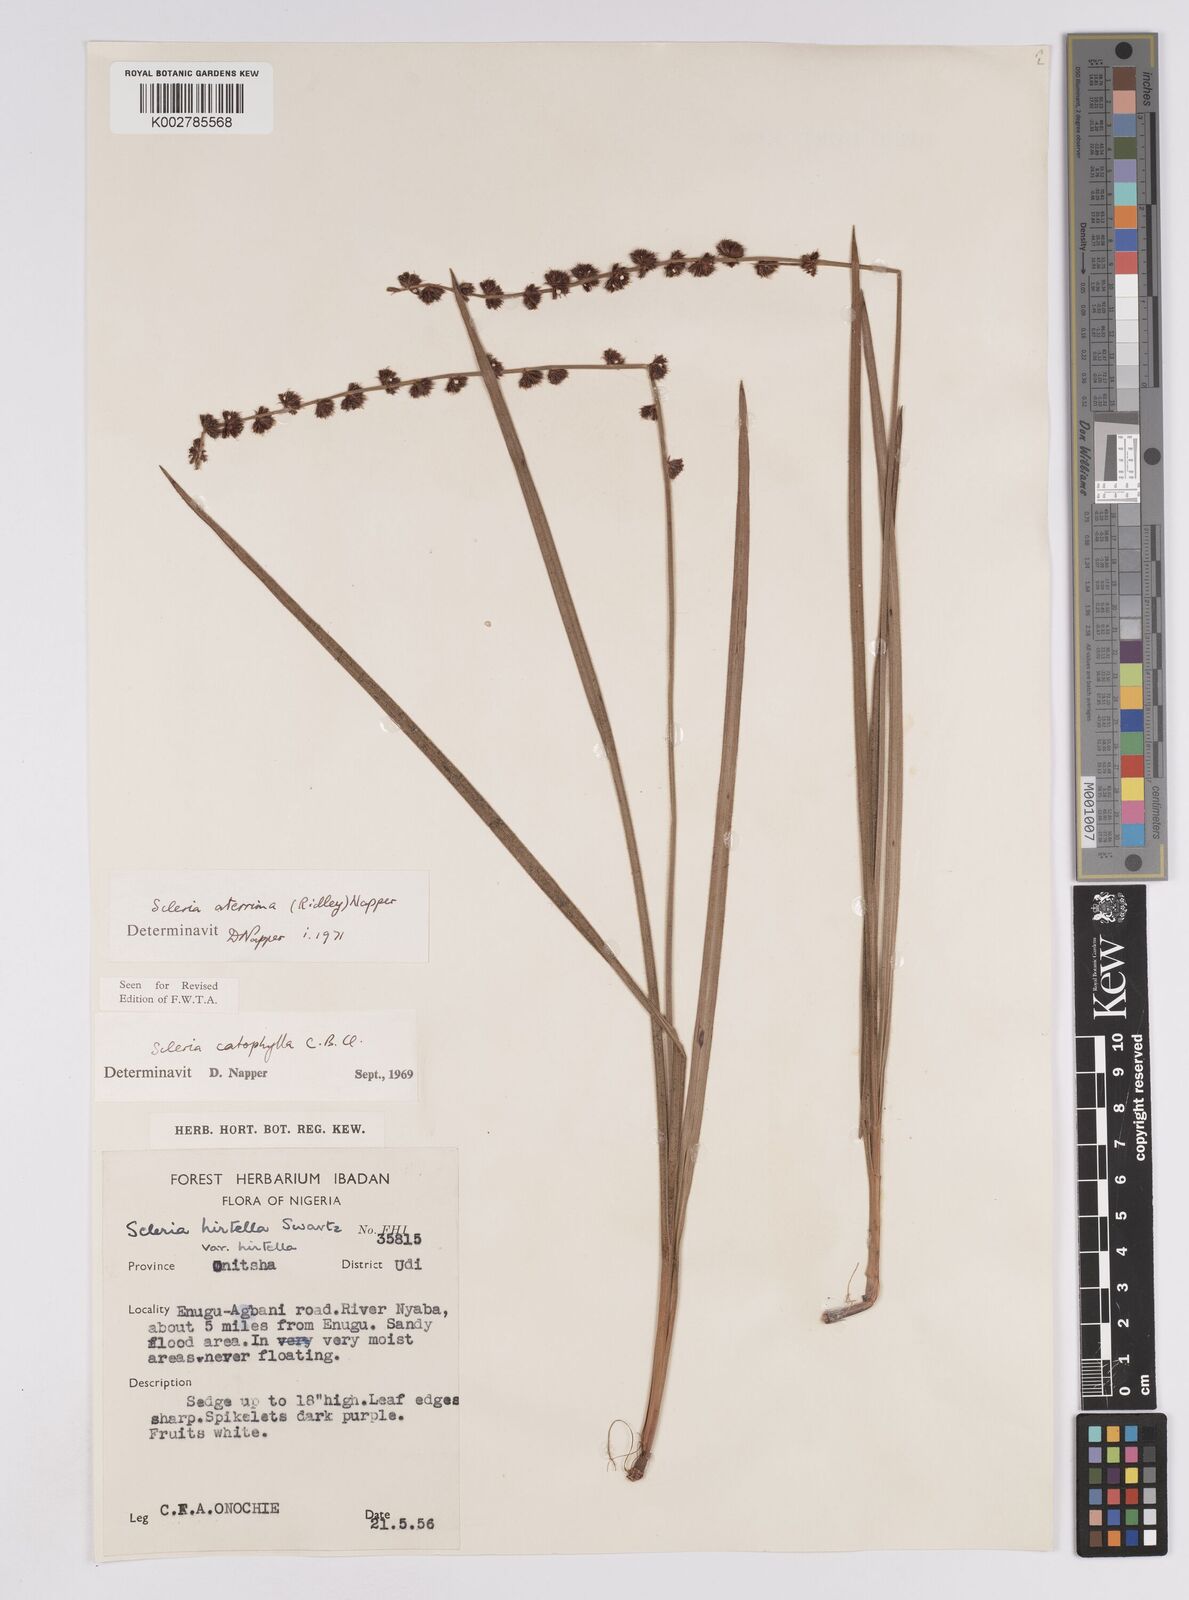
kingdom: Plantae
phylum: Tracheophyta
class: Liliopsida
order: Poales
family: Cyperaceae
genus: Scleria
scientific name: Scleria catophylla
